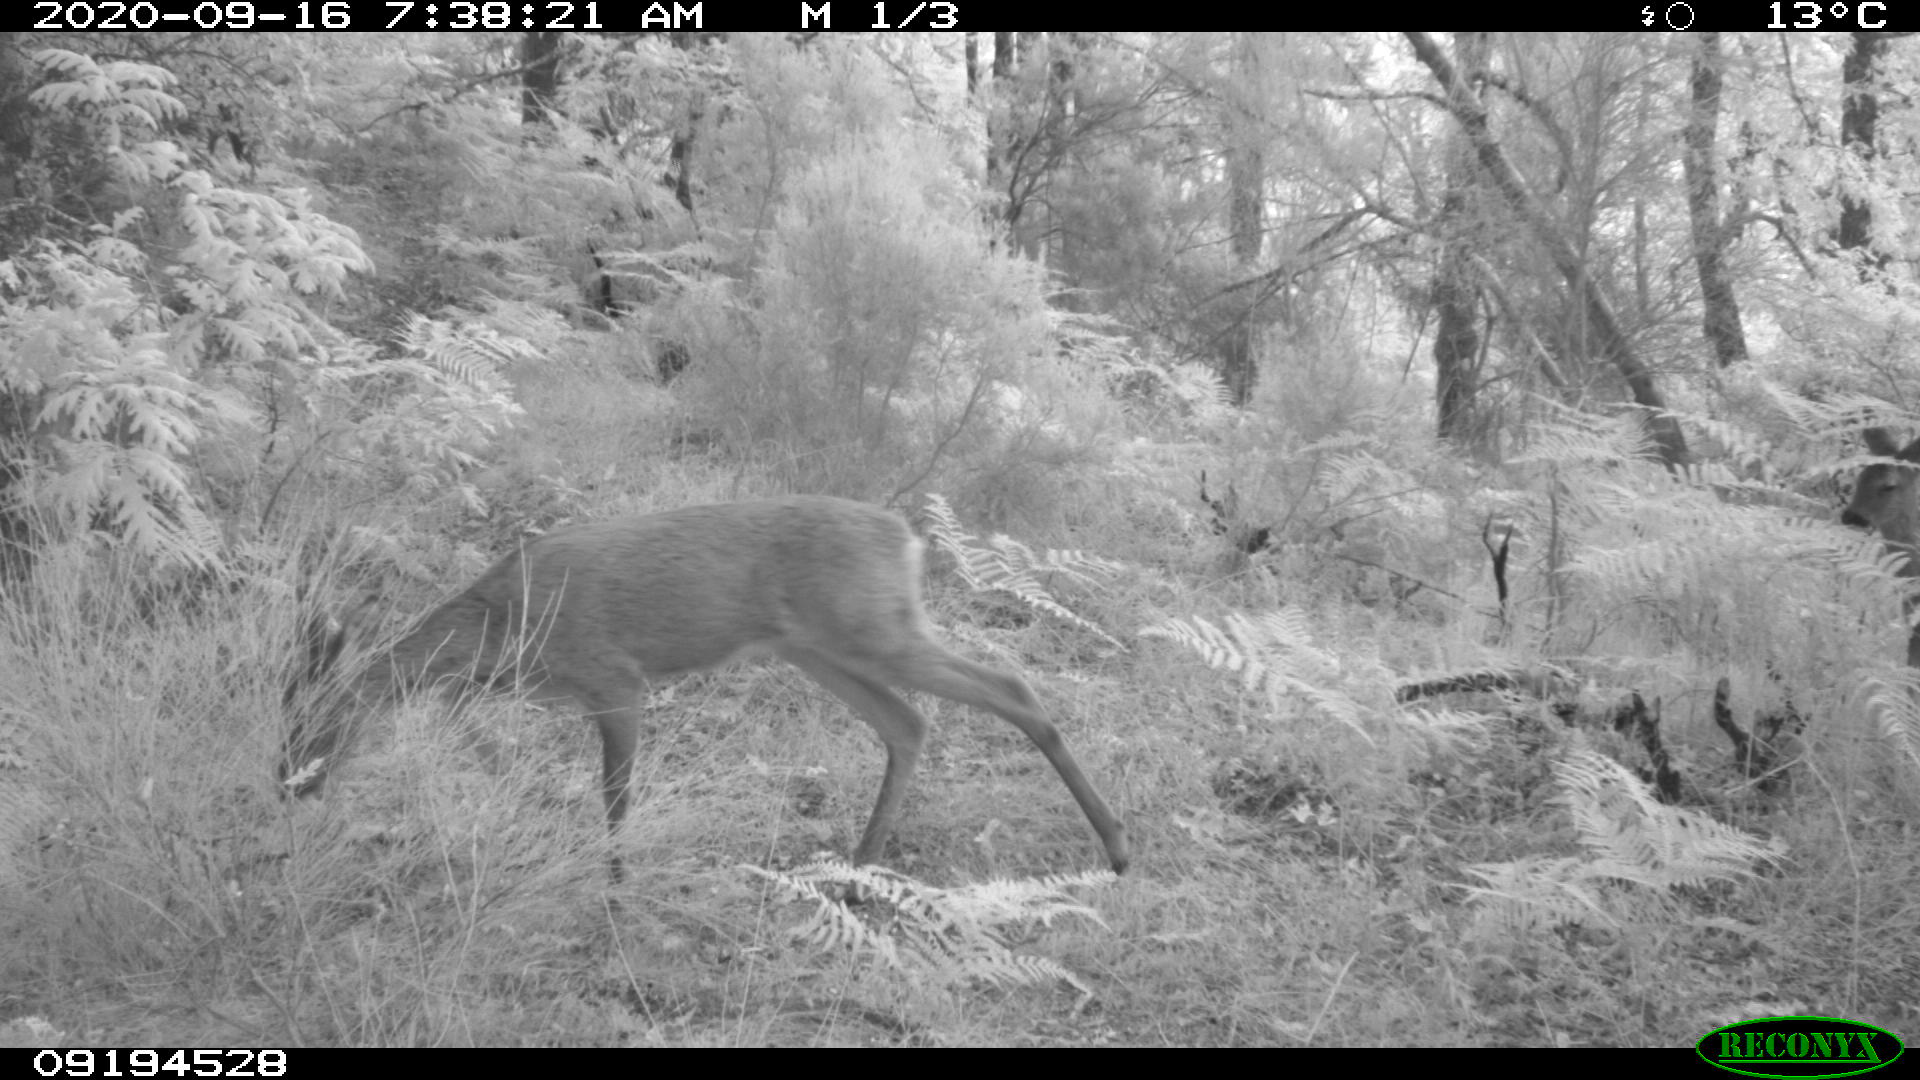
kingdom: Animalia
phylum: Chordata
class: Mammalia
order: Artiodactyla
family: Cervidae
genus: Capreolus
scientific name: Capreolus capreolus
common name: Western roe deer
